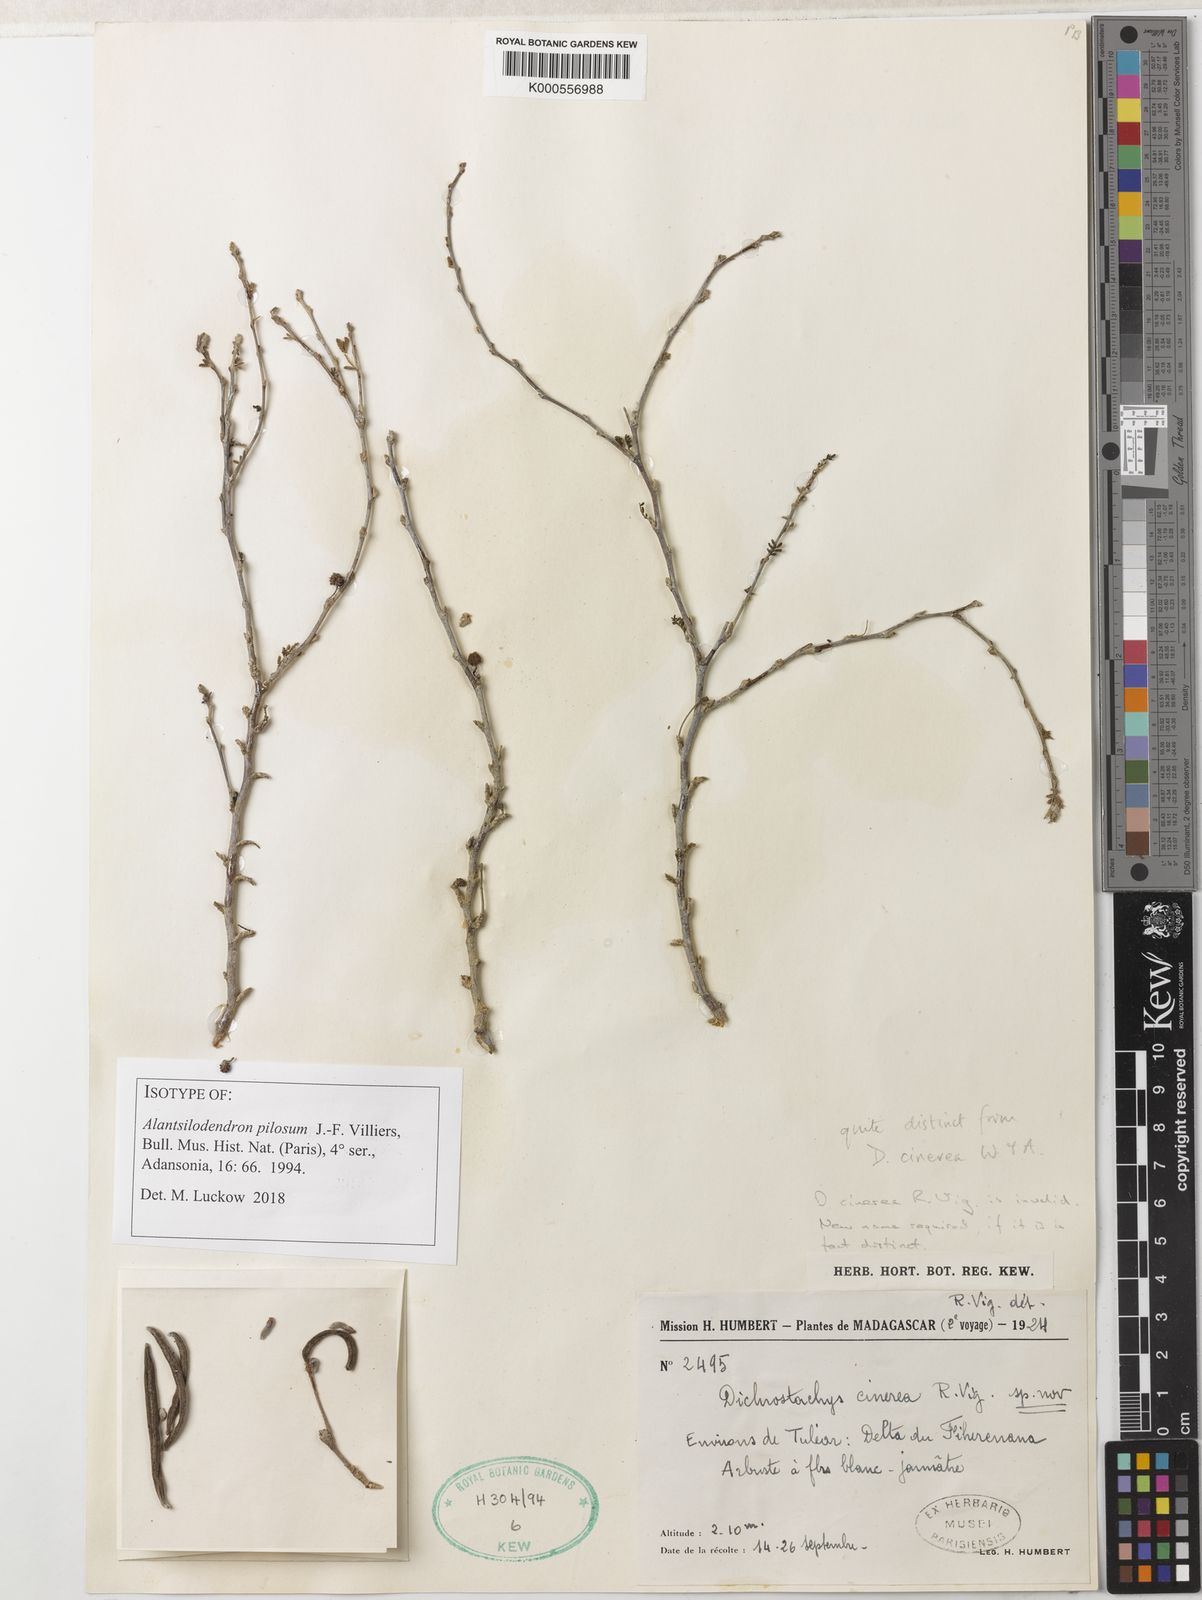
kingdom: Plantae
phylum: Tracheophyta
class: Magnoliopsida
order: Fabales
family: Fabaceae
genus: Alantsilodendron
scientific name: Alantsilodendron pilosum
